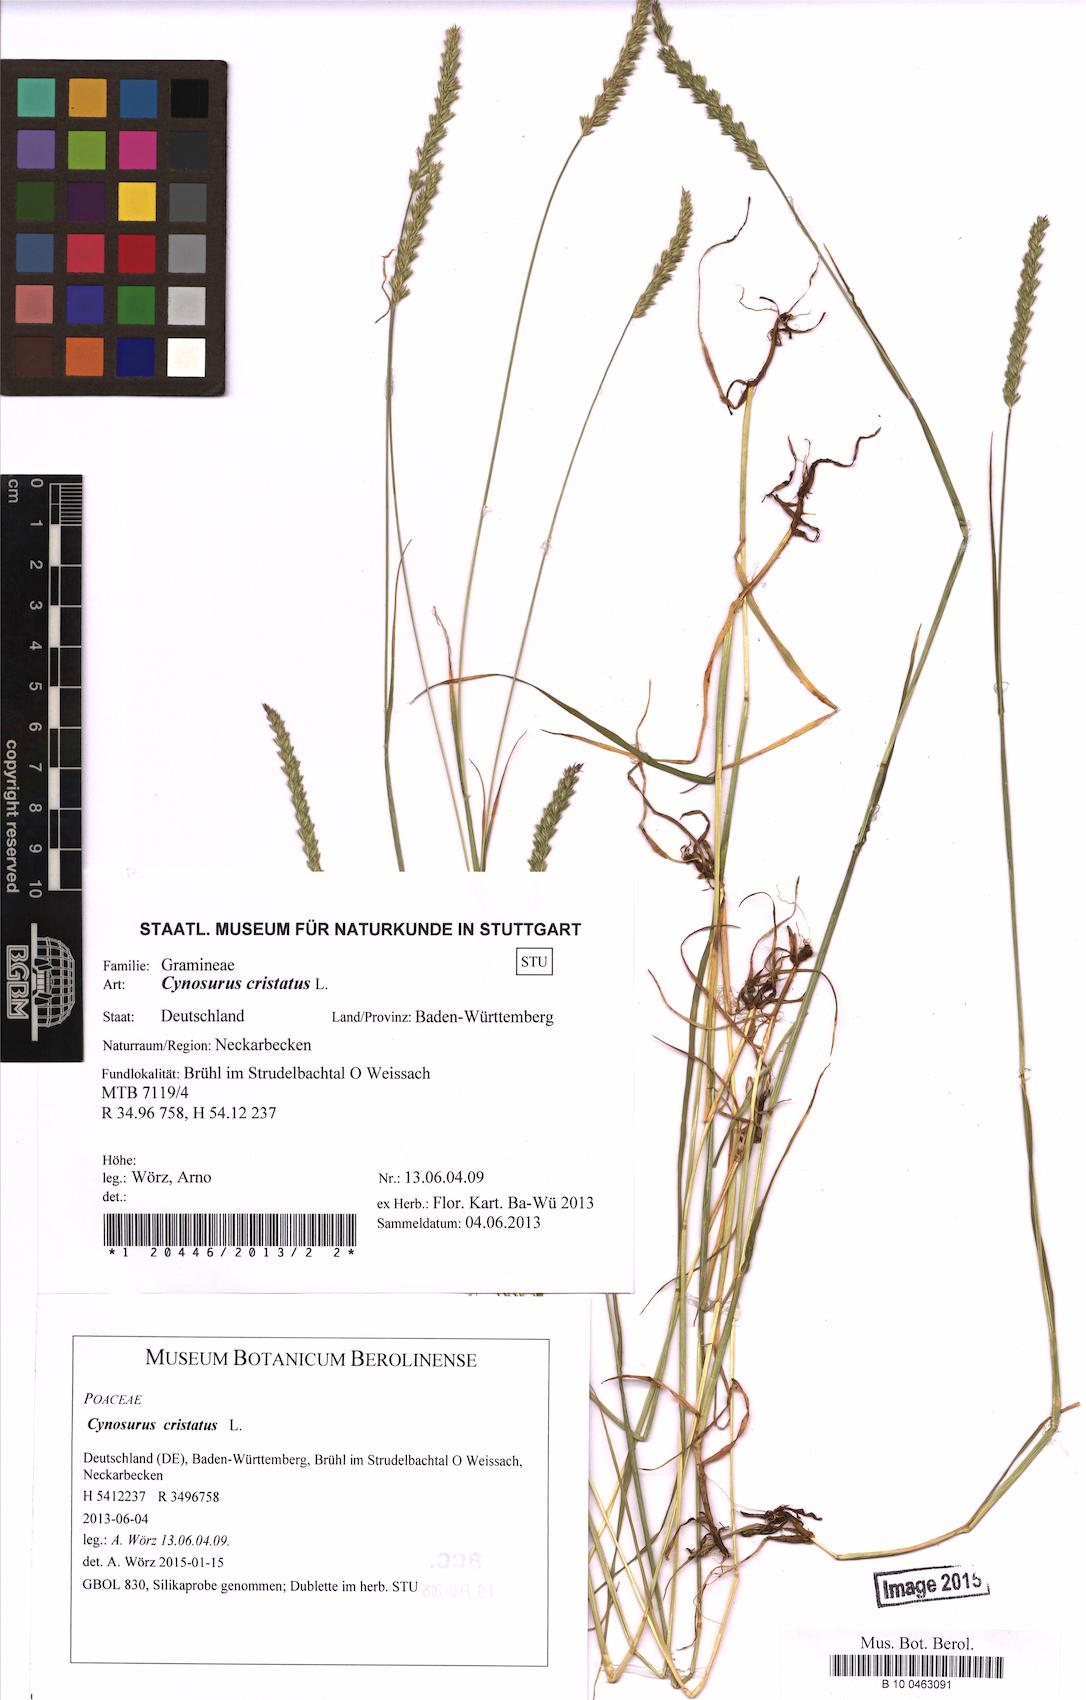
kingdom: Plantae
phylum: Tracheophyta
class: Liliopsida
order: Poales
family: Poaceae
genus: Cynosurus
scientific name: Cynosurus cristatus
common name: Crested dog's-tail
